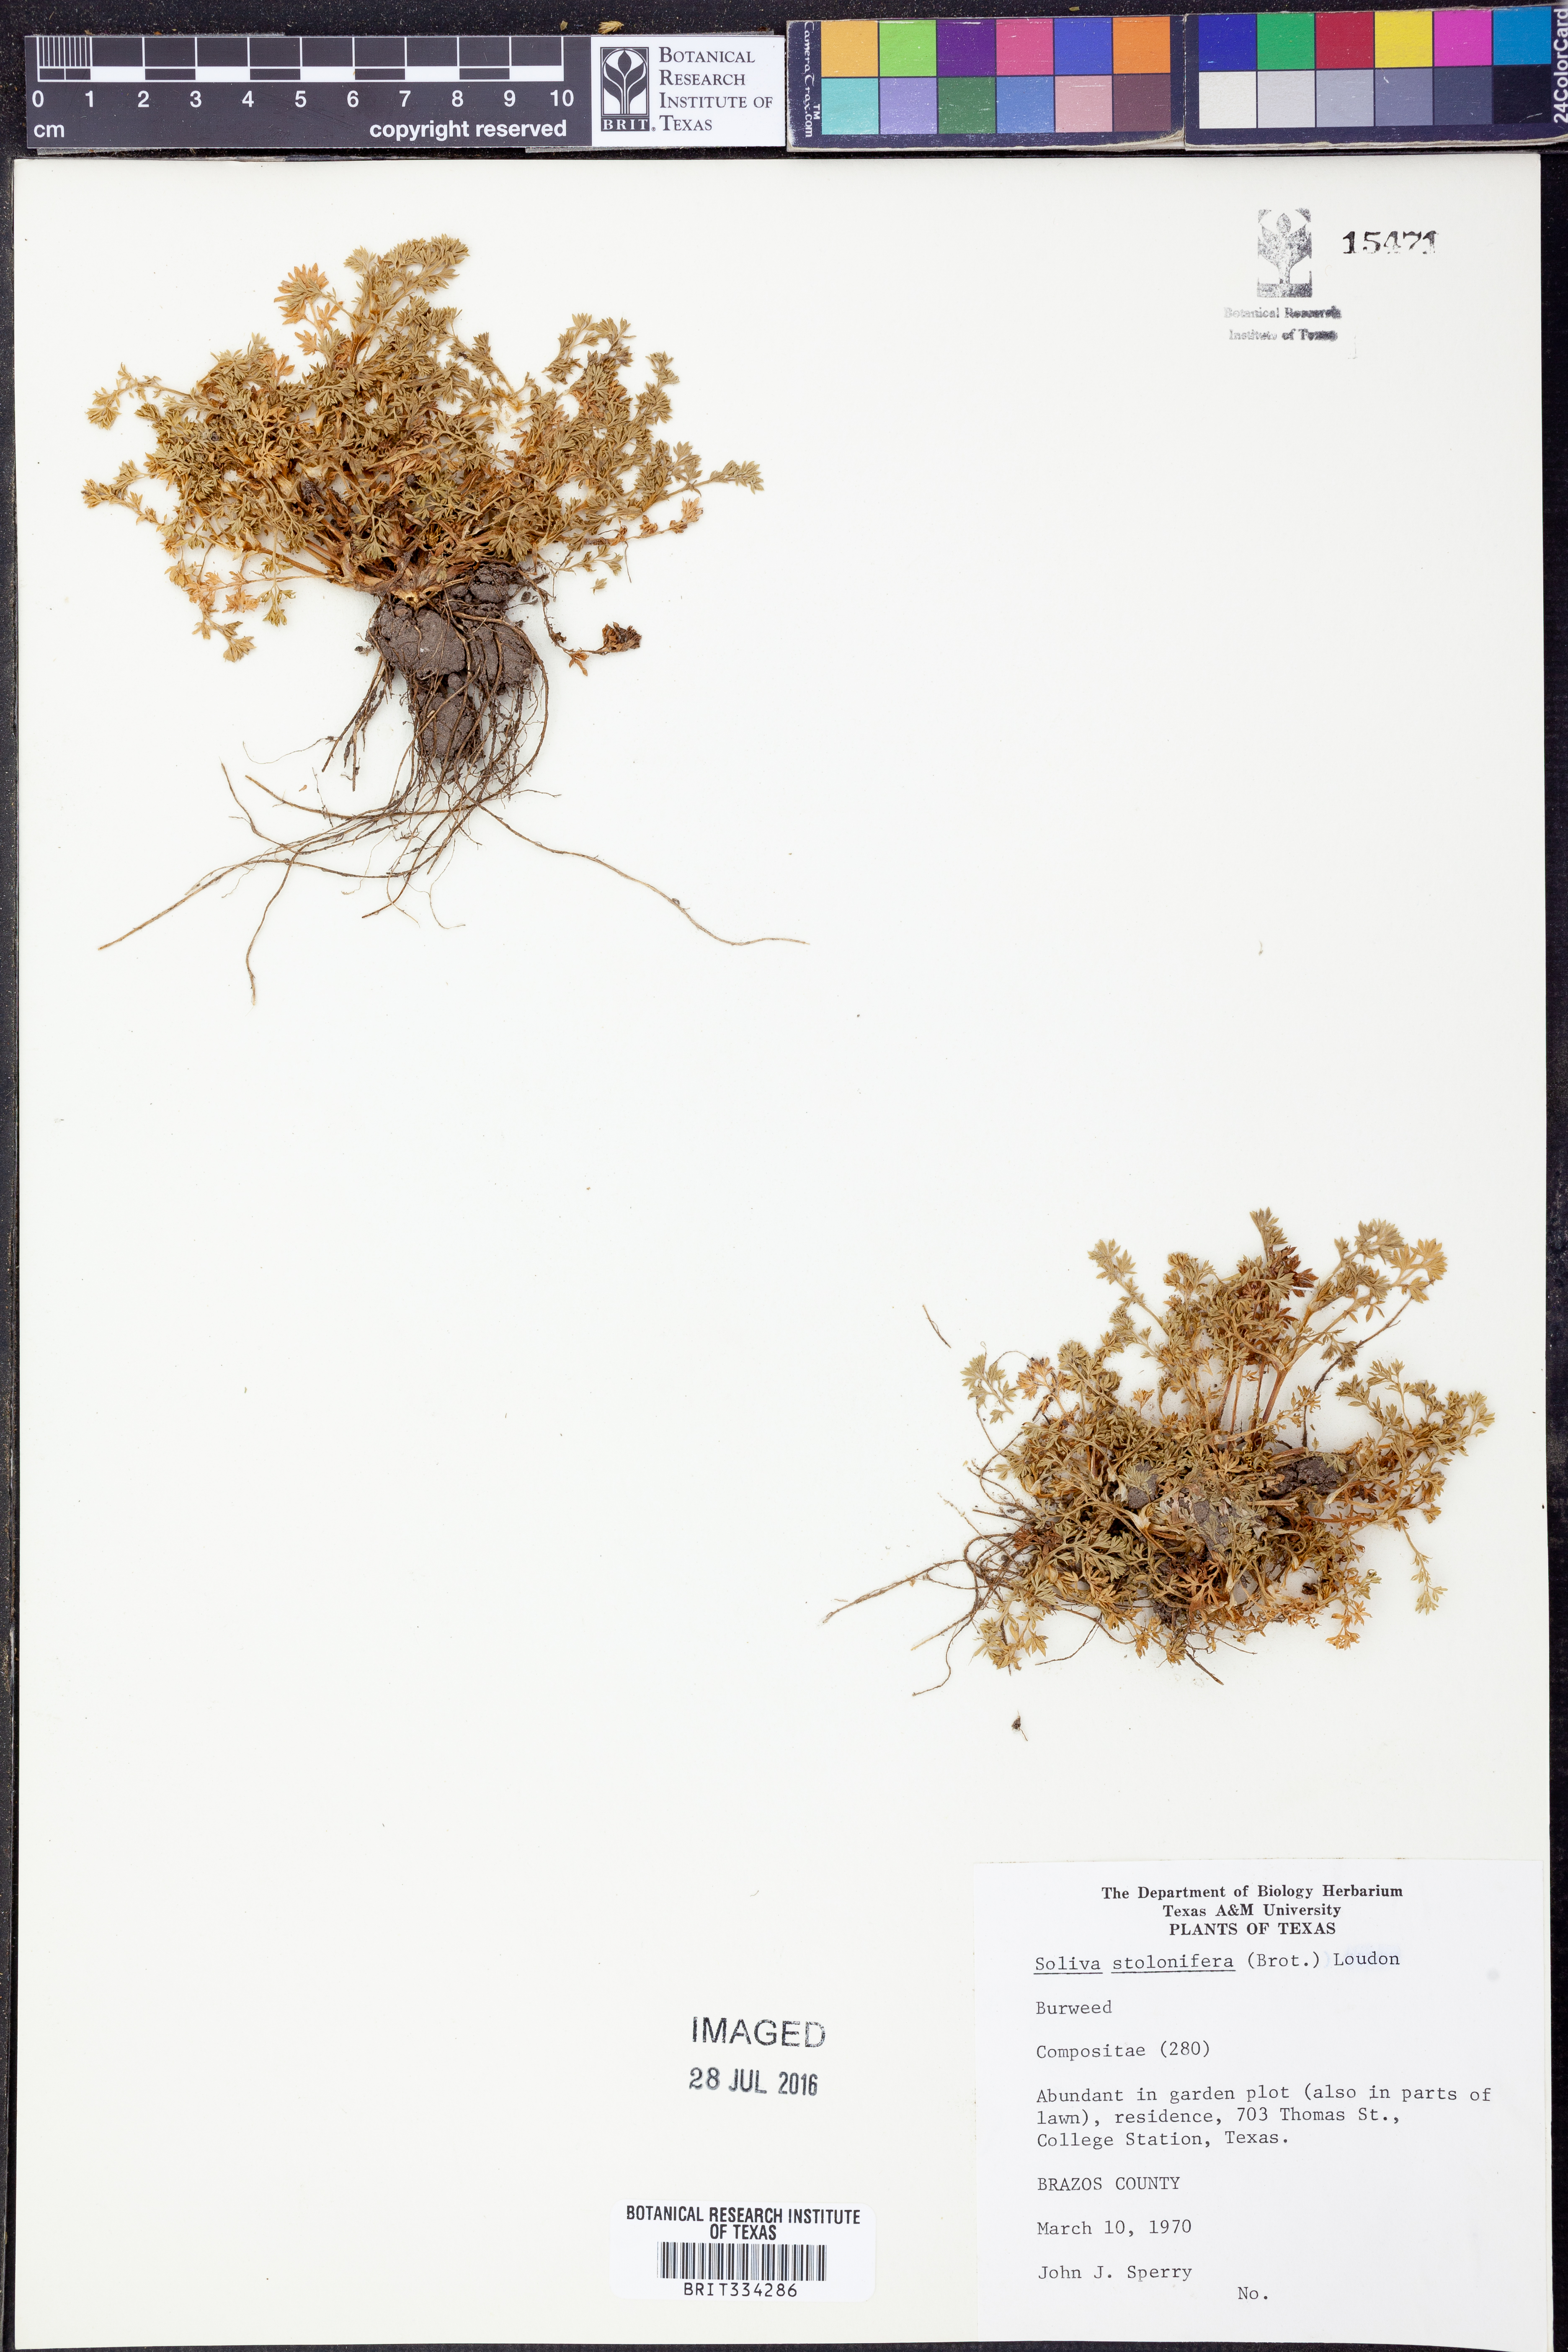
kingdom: Plantae
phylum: Tracheophyta
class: Magnoliopsida
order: Asterales
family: Asteraceae
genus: Soliva
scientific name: Soliva stolonifera
